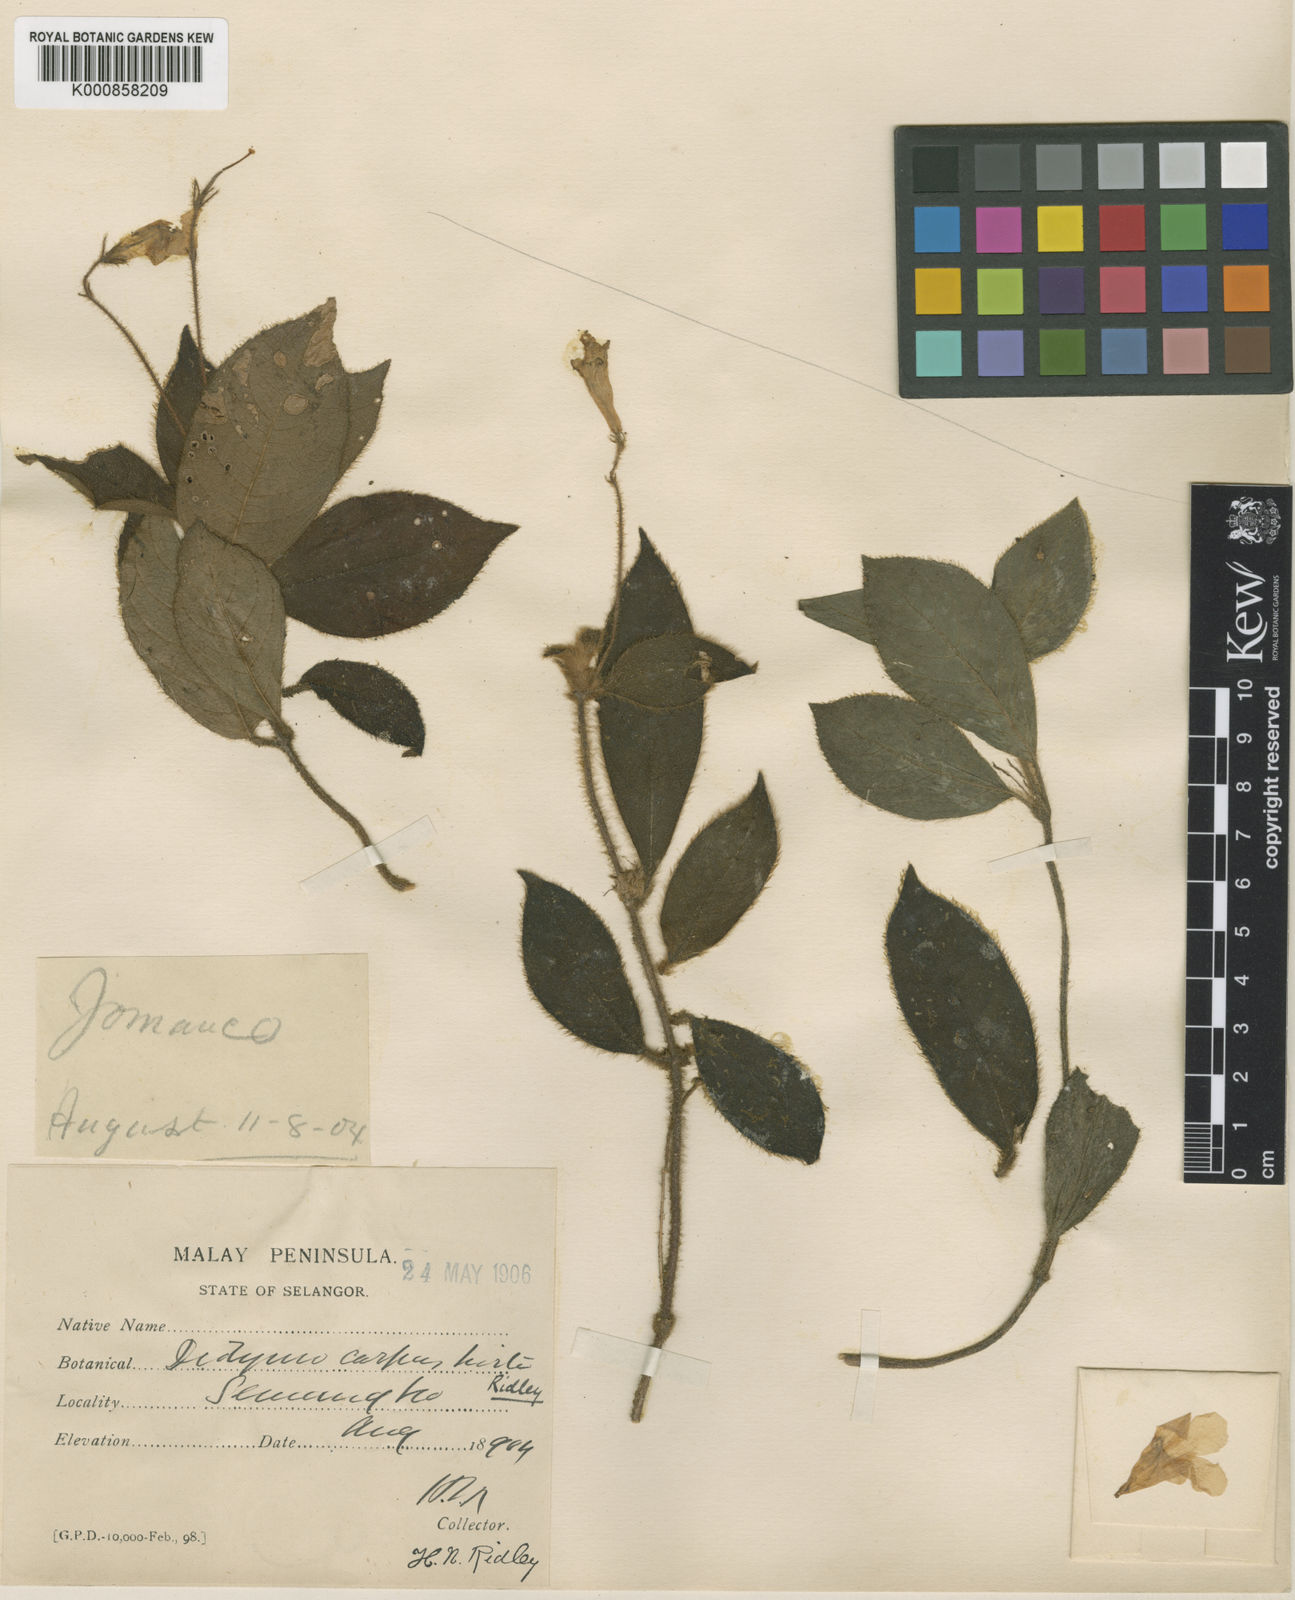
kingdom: Plantae
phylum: Tracheophyta
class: Magnoliopsida
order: Lamiales
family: Gesneriaceae
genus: Codonoboea
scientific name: Codonoboea hirta
